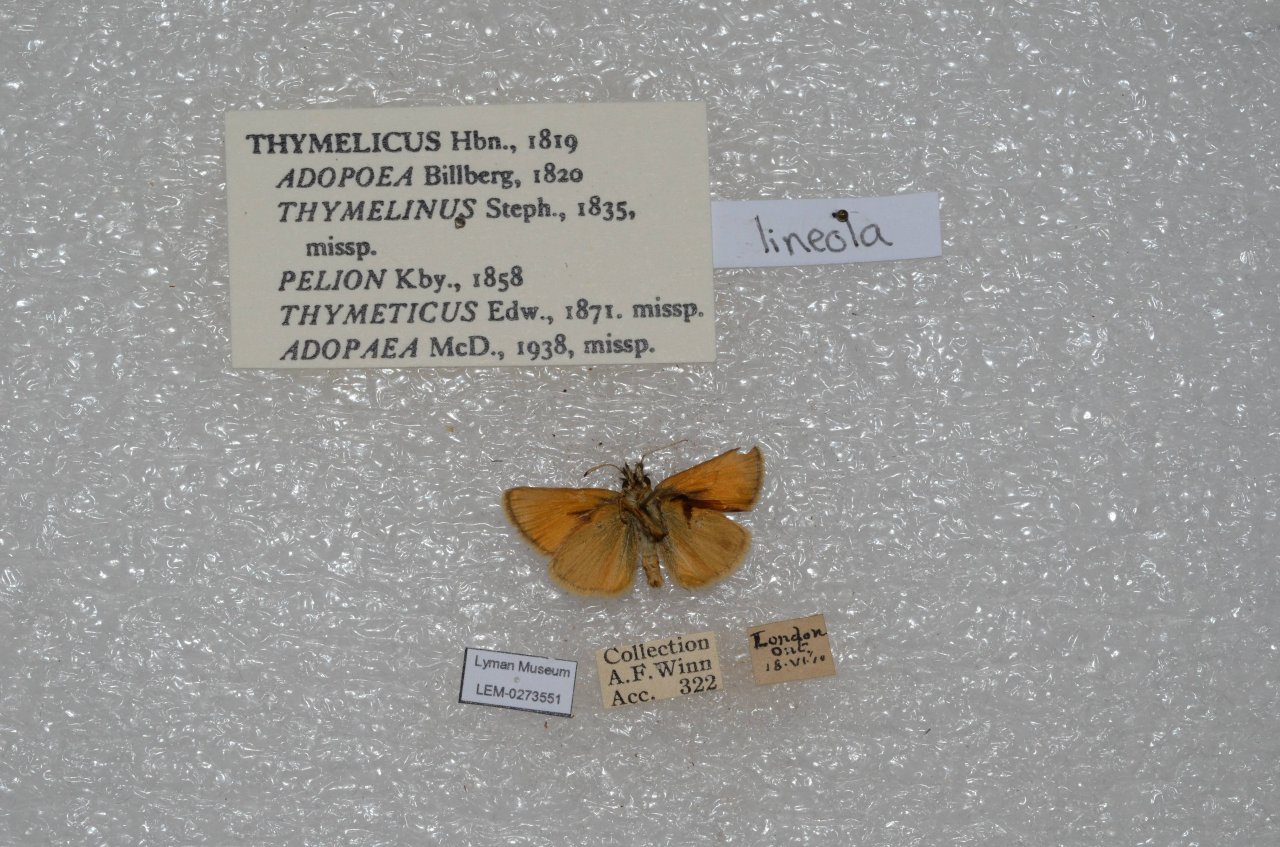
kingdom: Animalia
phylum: Arthropoda
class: Insecta
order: Lepidoptera
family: Hesperiidae
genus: Thymelicus
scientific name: Thymelicus lineola
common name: European Skipper
